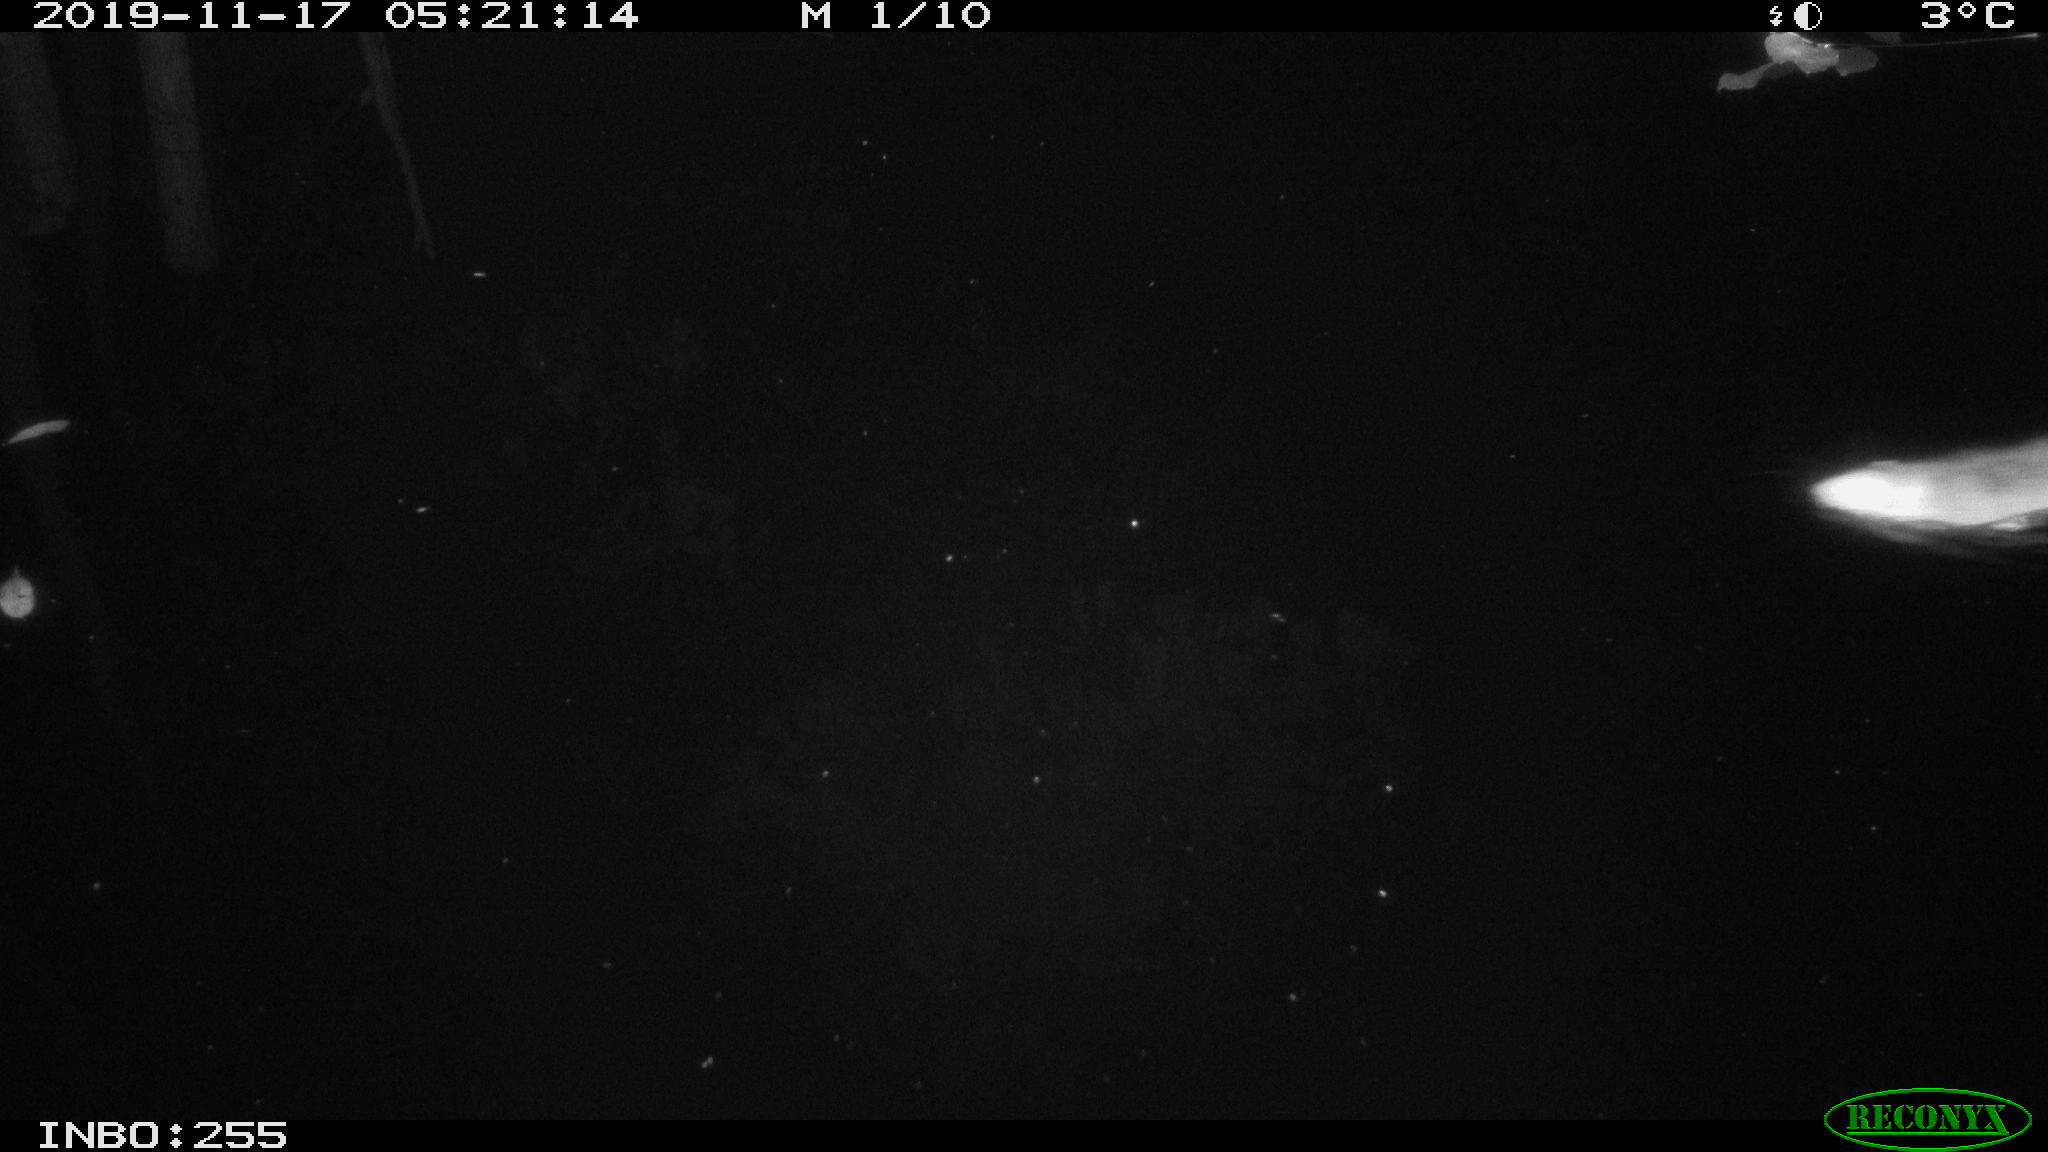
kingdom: Animalia
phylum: Chordata
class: Mammalia
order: Rodentia
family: Muridae
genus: Rattus
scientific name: Rattus norvegicus
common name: Brown rat
